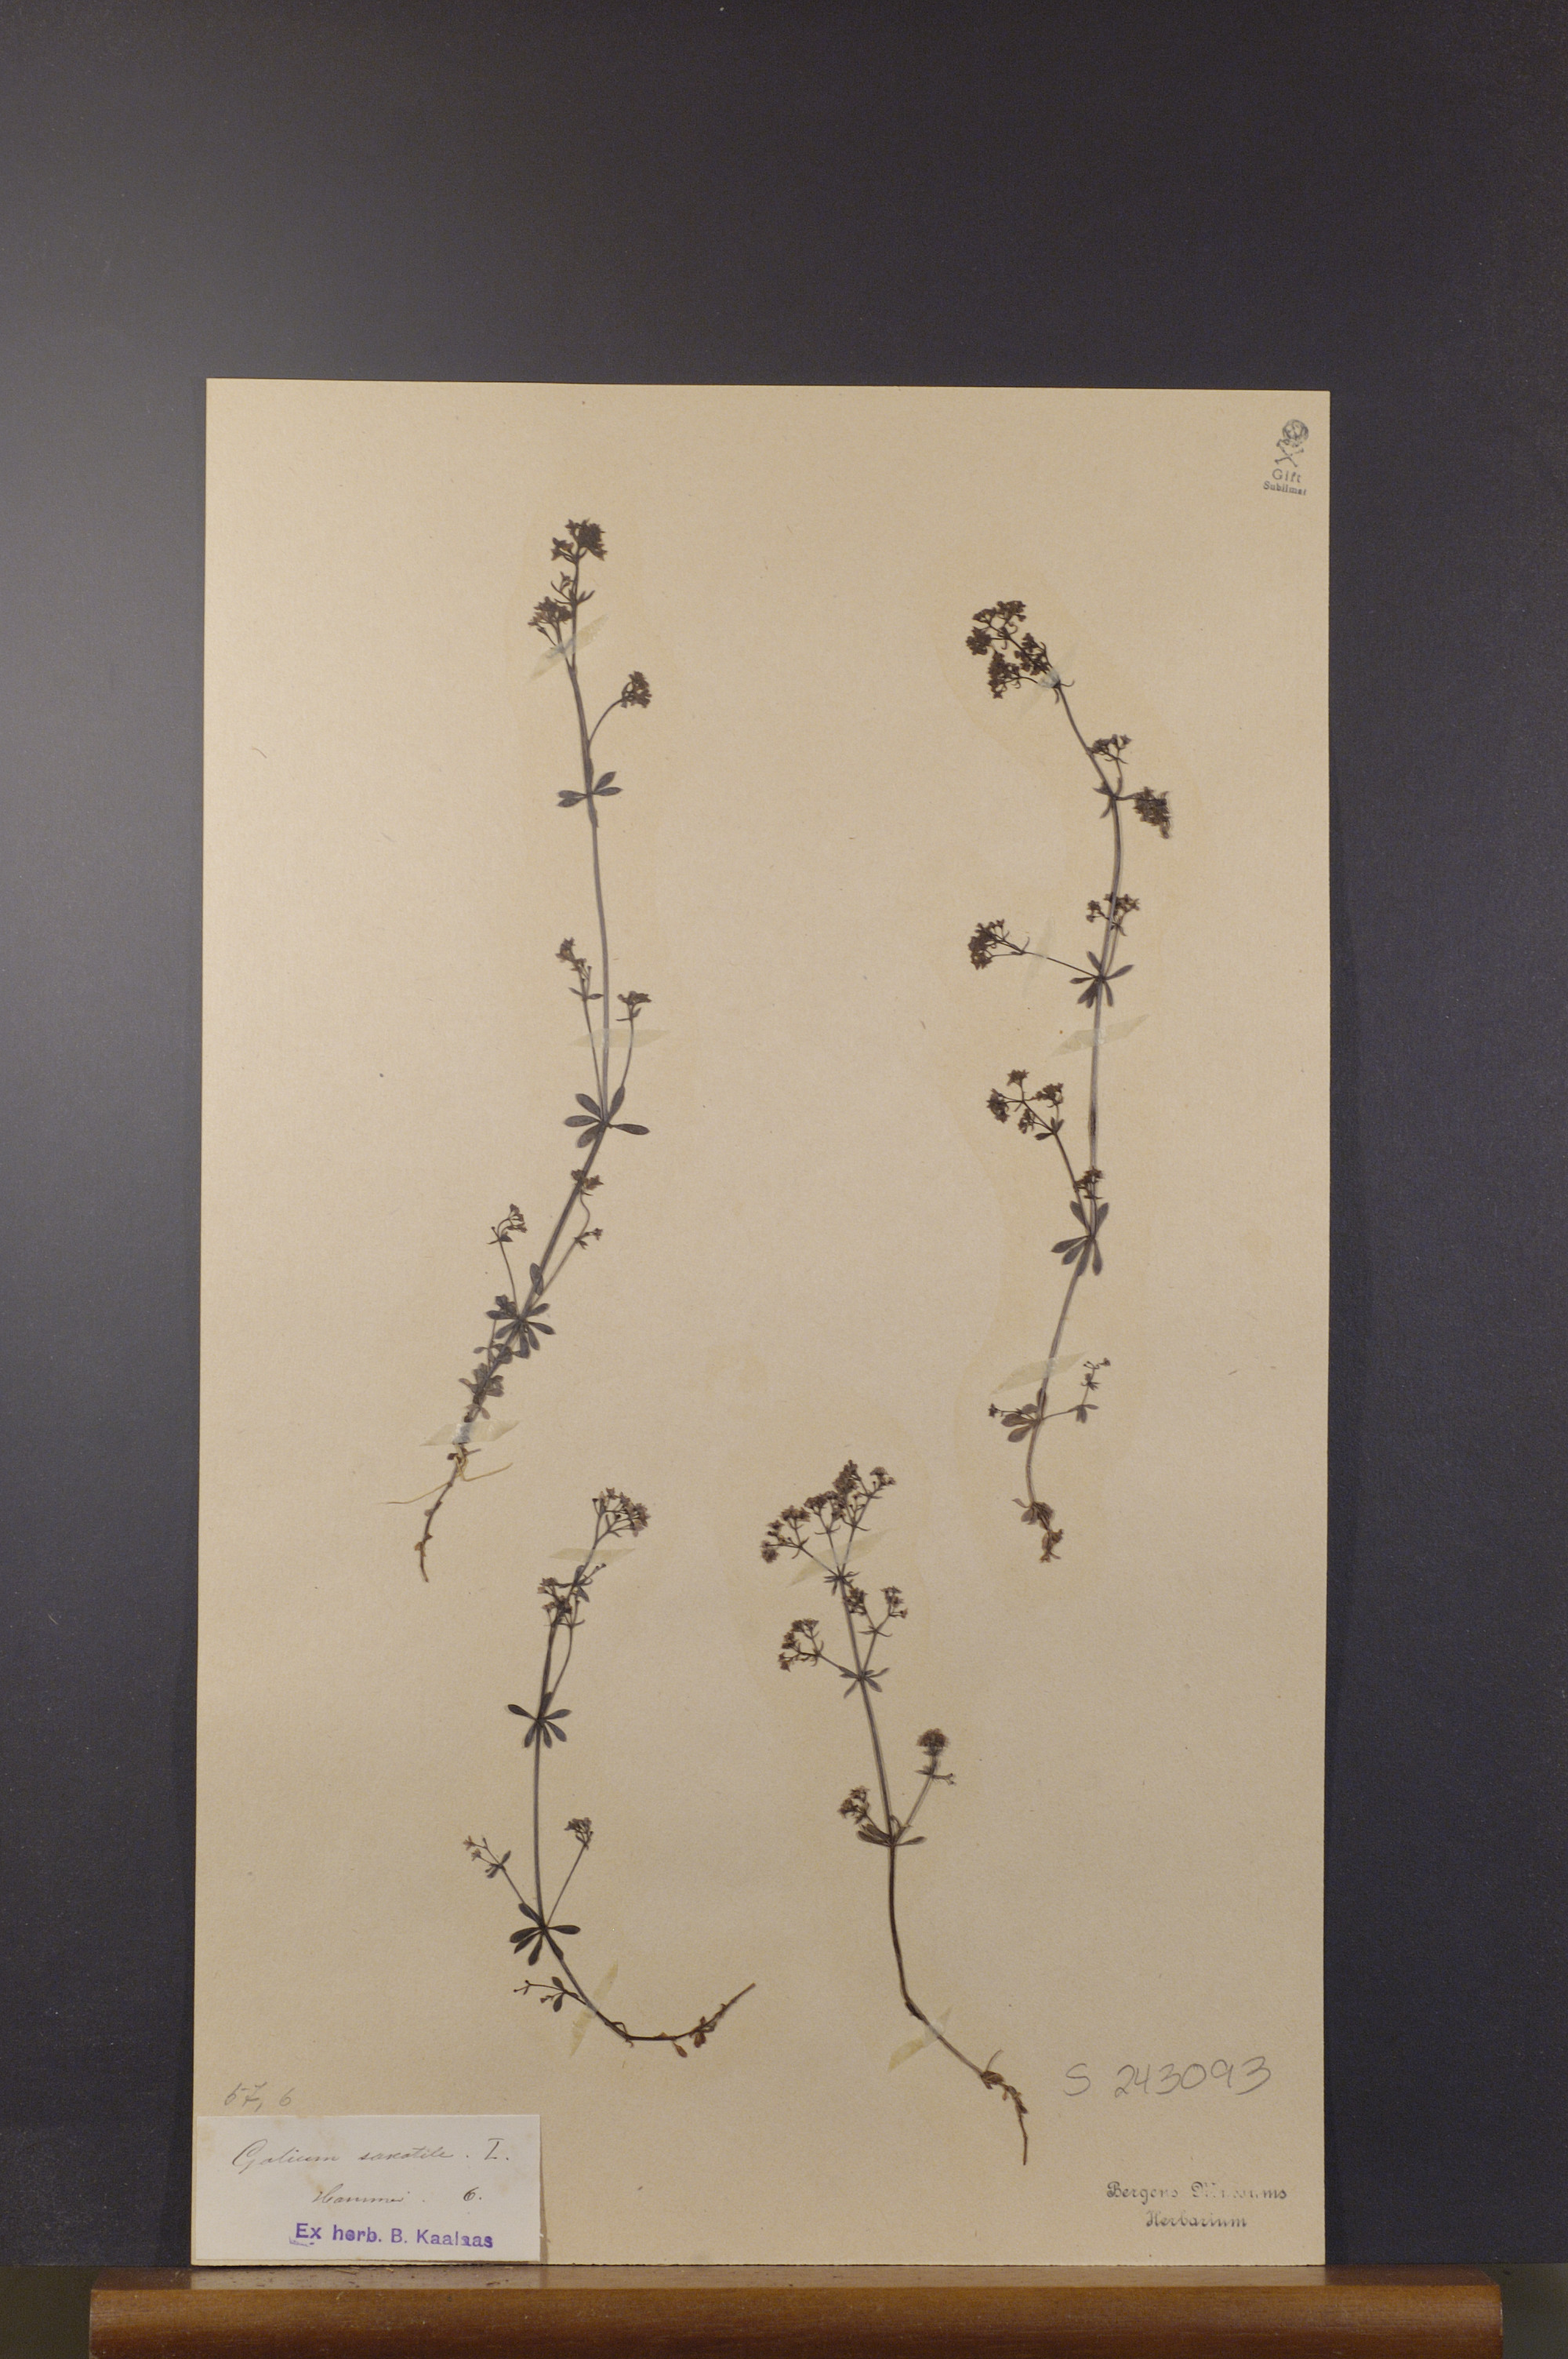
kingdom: Plantae
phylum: Tracheophyta
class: Magnoliopsida
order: Gentianales
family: Rubiaceae
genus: Galium
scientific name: Galium saxatile
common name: Heath bedstraw
